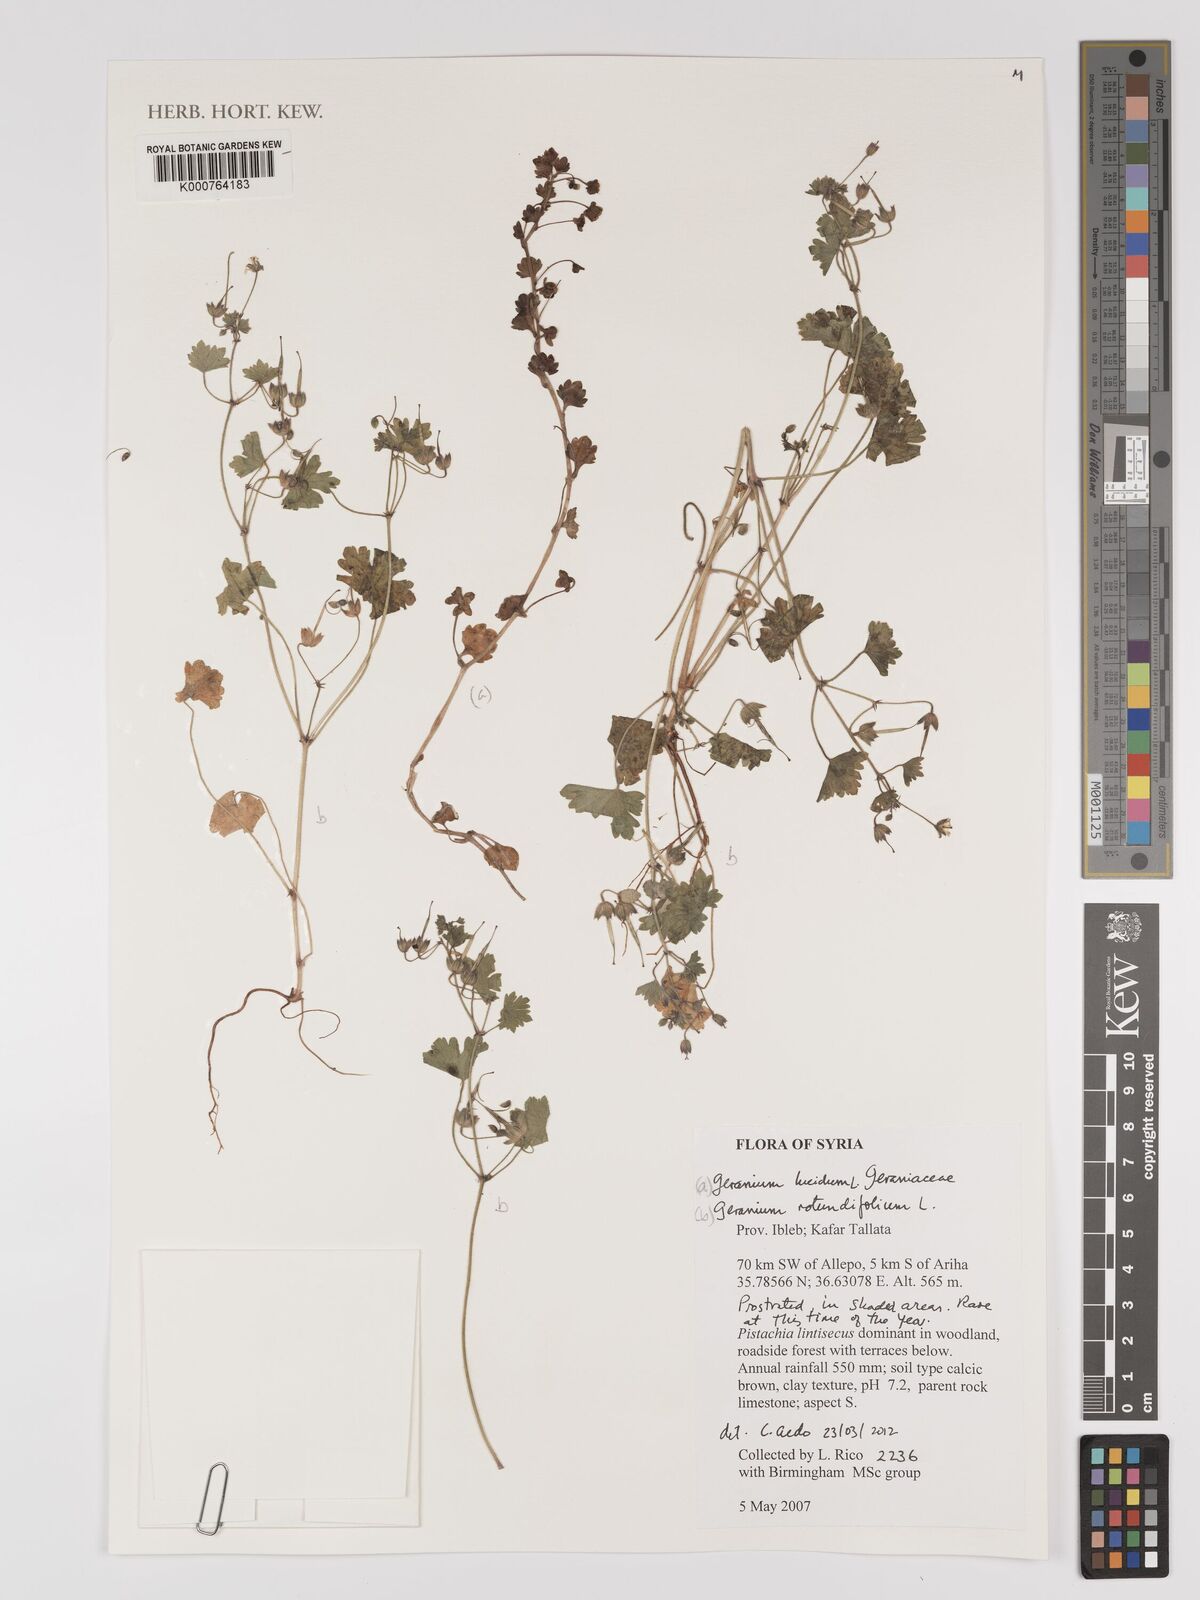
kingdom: Plantae
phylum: Tracheophyta
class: Magnoliopsida
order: Geraniales
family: Geraniaceae
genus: Geranium
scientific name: Geranium lucidum
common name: Shining crane's-bill
